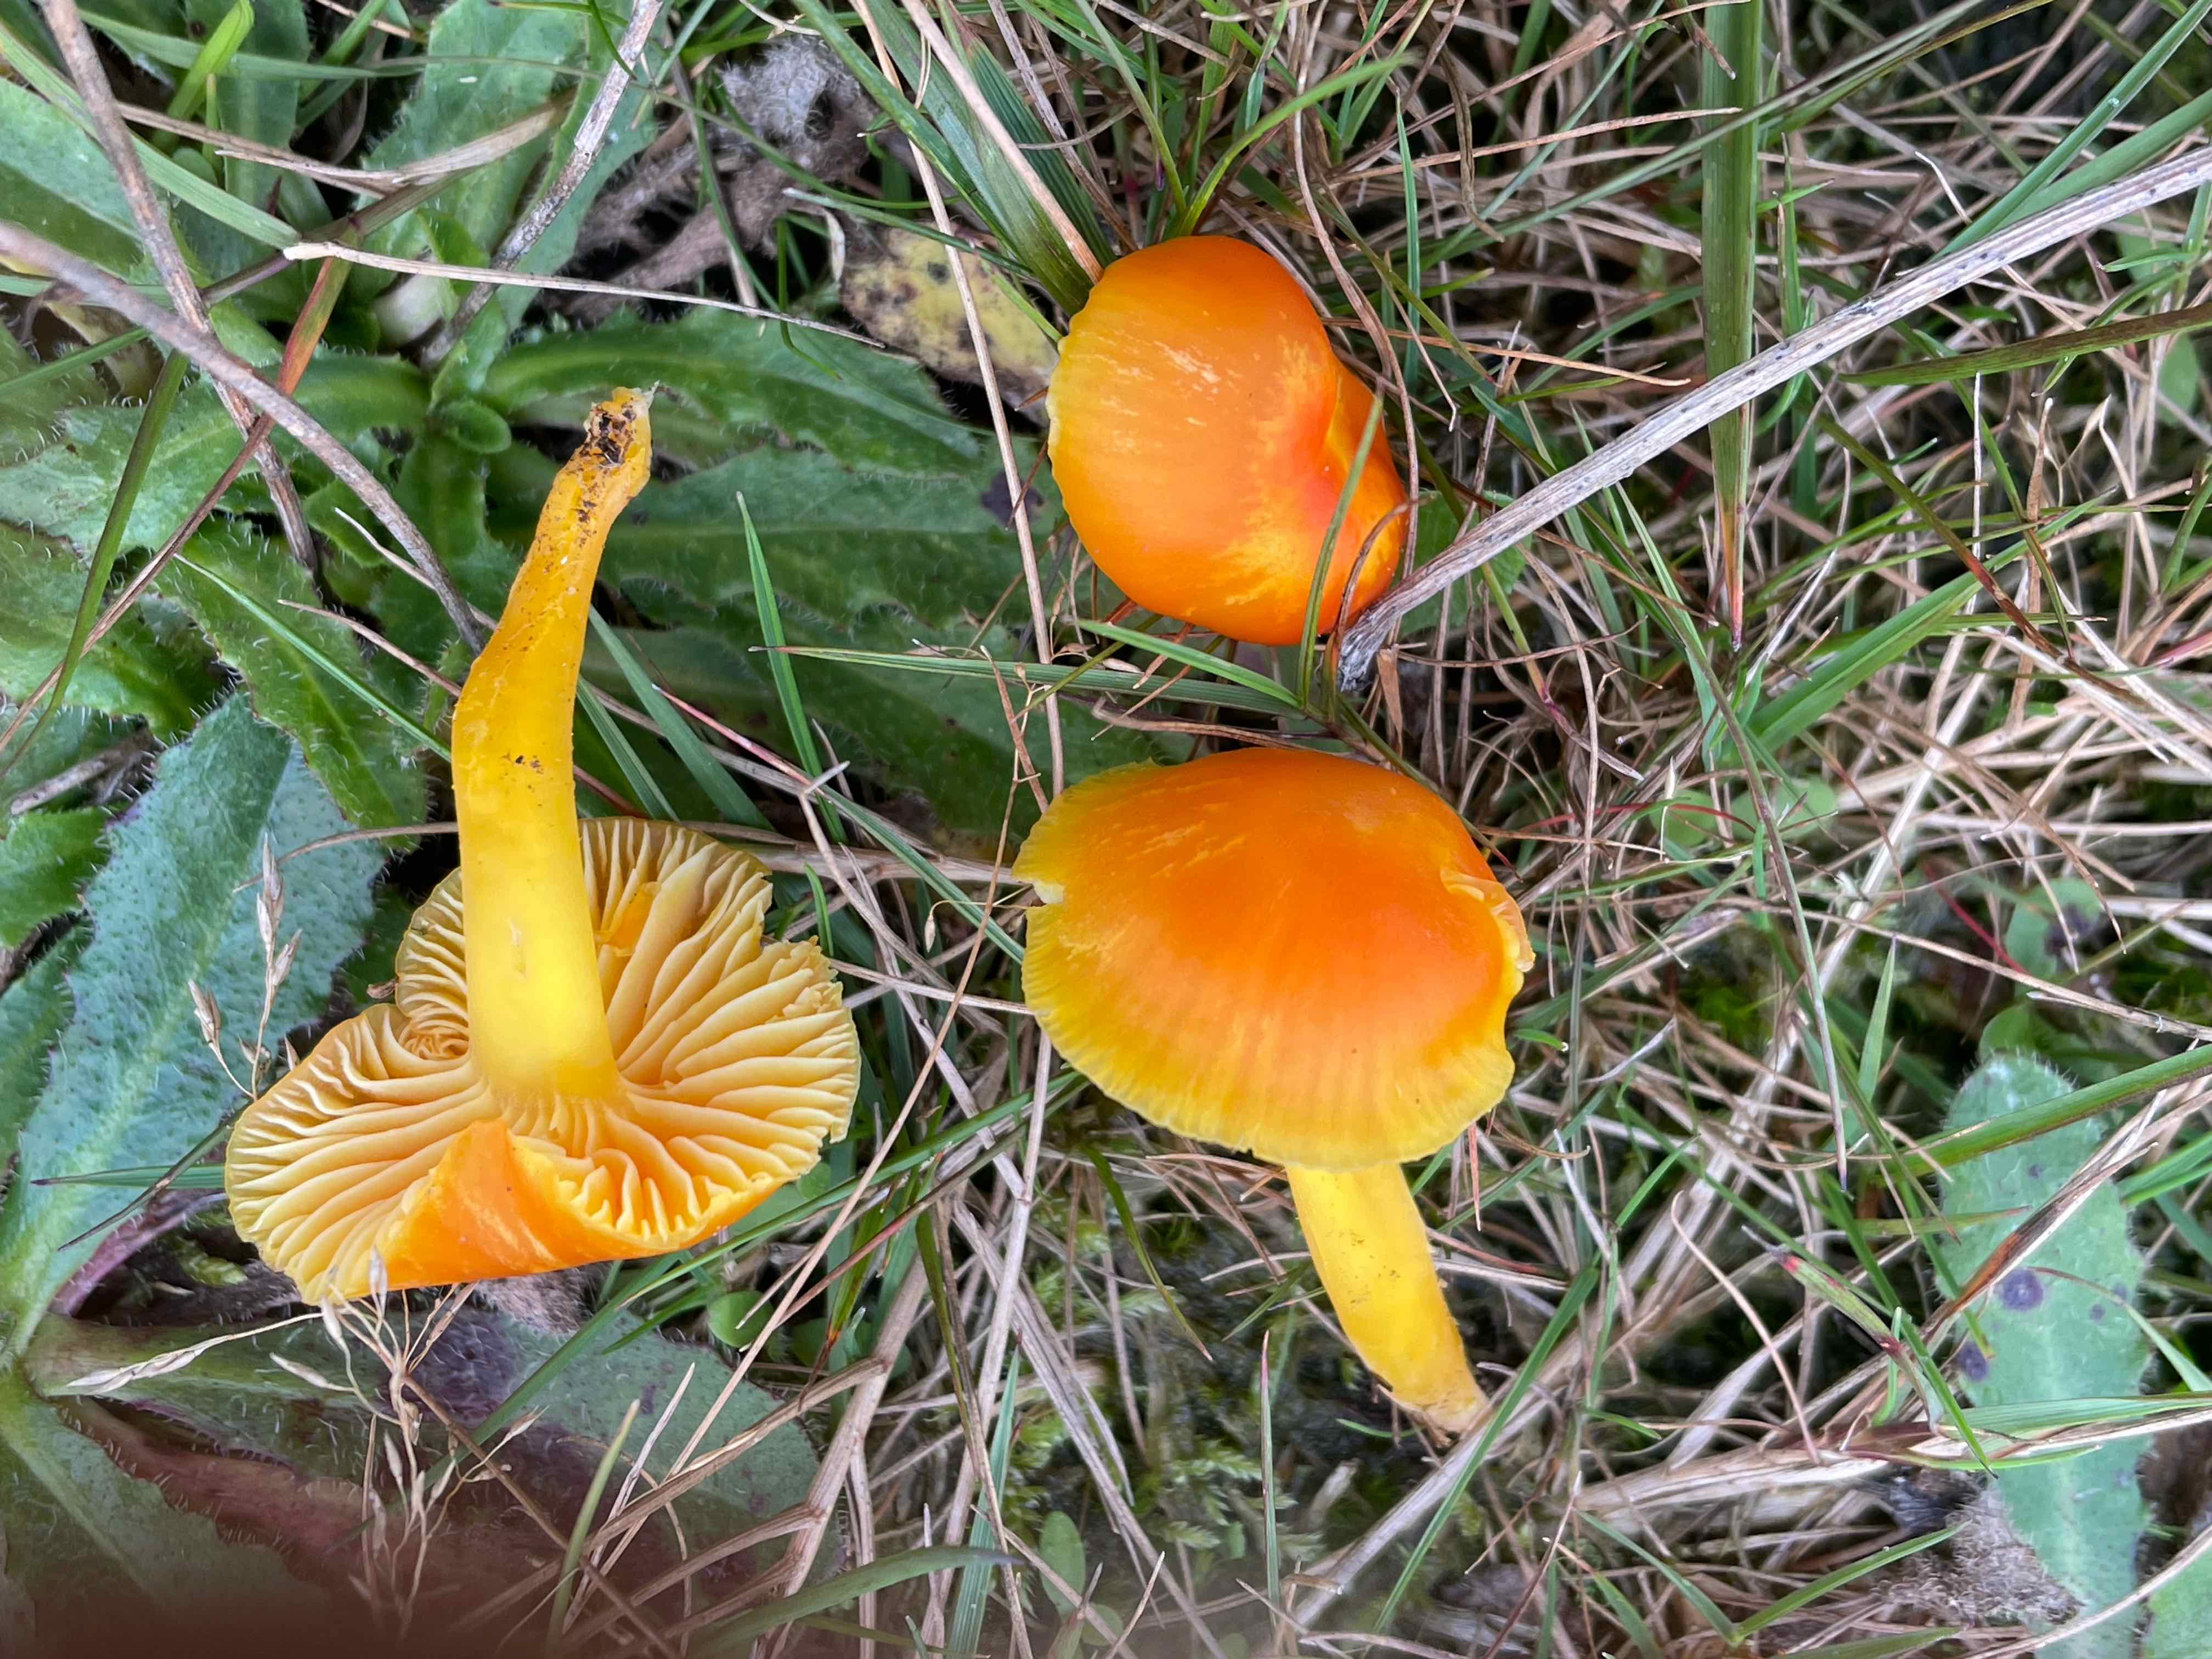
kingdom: Fungi
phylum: Basidiomycota
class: Agaricomycetes
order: Agaricales
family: Hygrophoraceae
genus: Hygrocybe
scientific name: Hygrocybe ceracea
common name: voksgul vokshat
